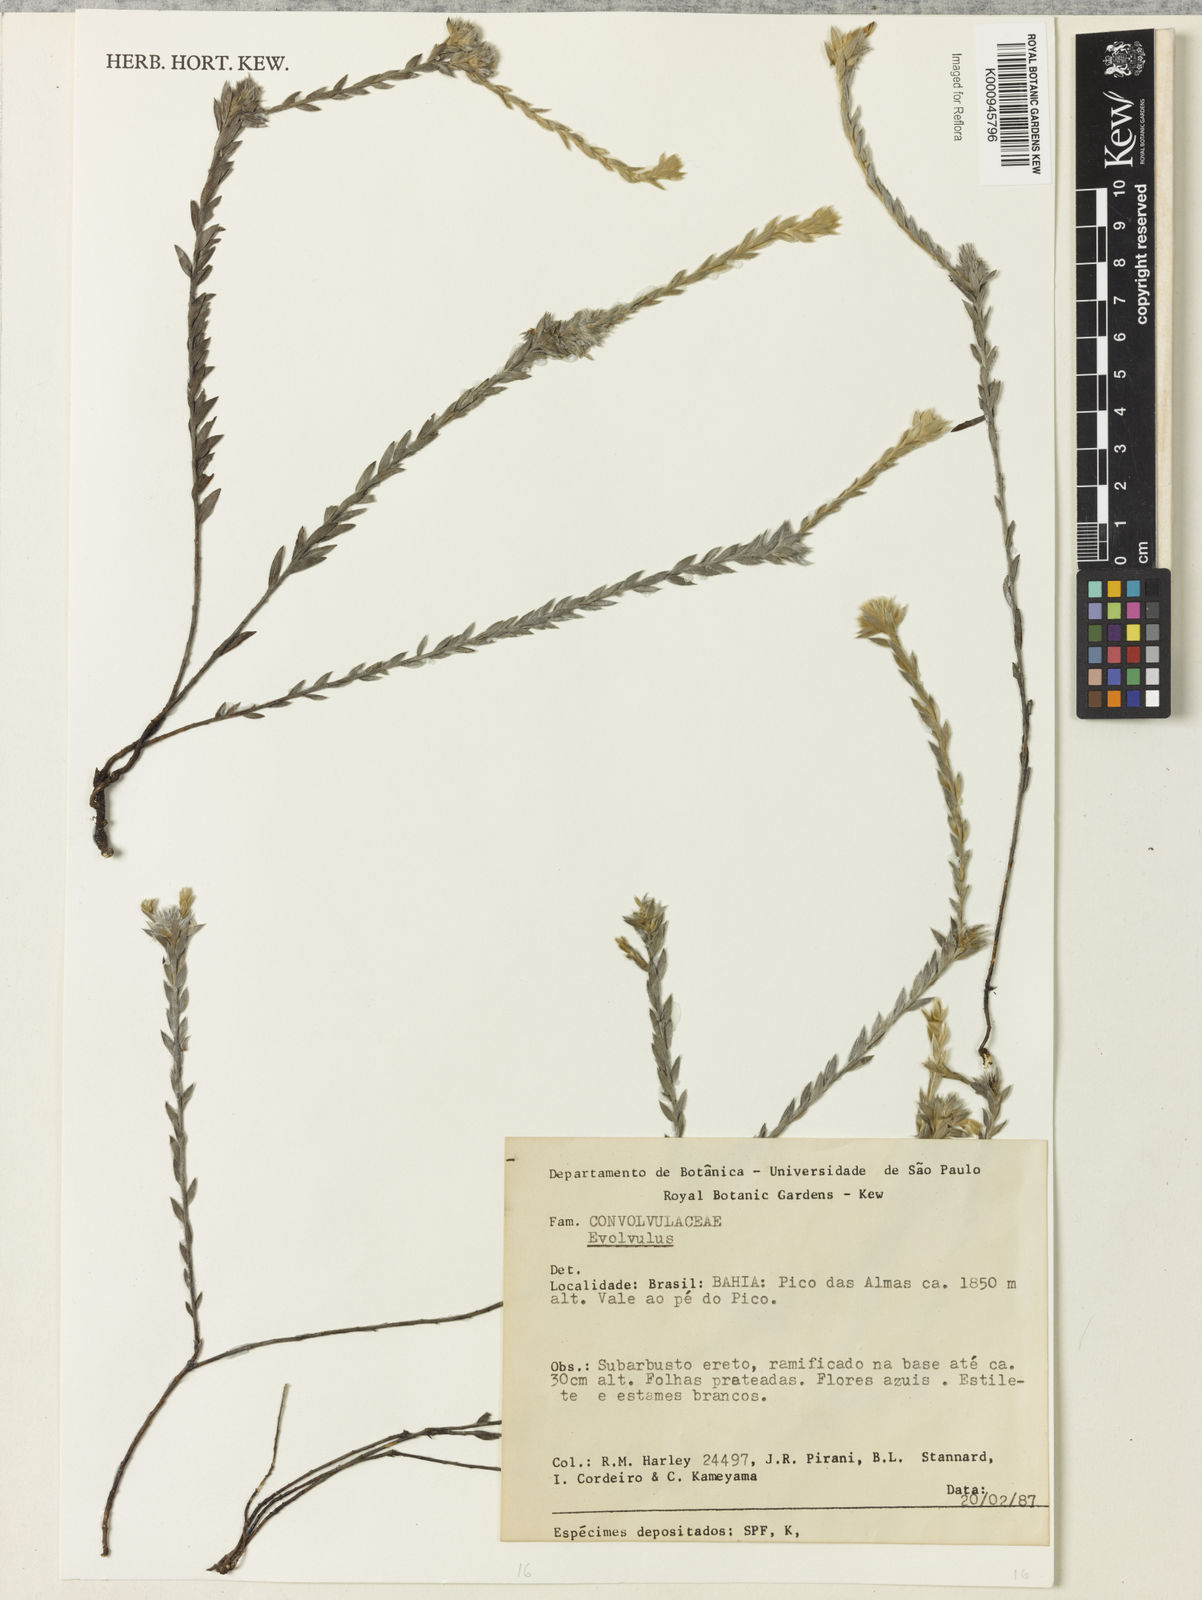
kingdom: Plantae
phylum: Tracheophyta
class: Magnoliopsida
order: Solanales
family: Convolvulaceae
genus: Evolvulus
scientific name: Evolvulus brevifolius
